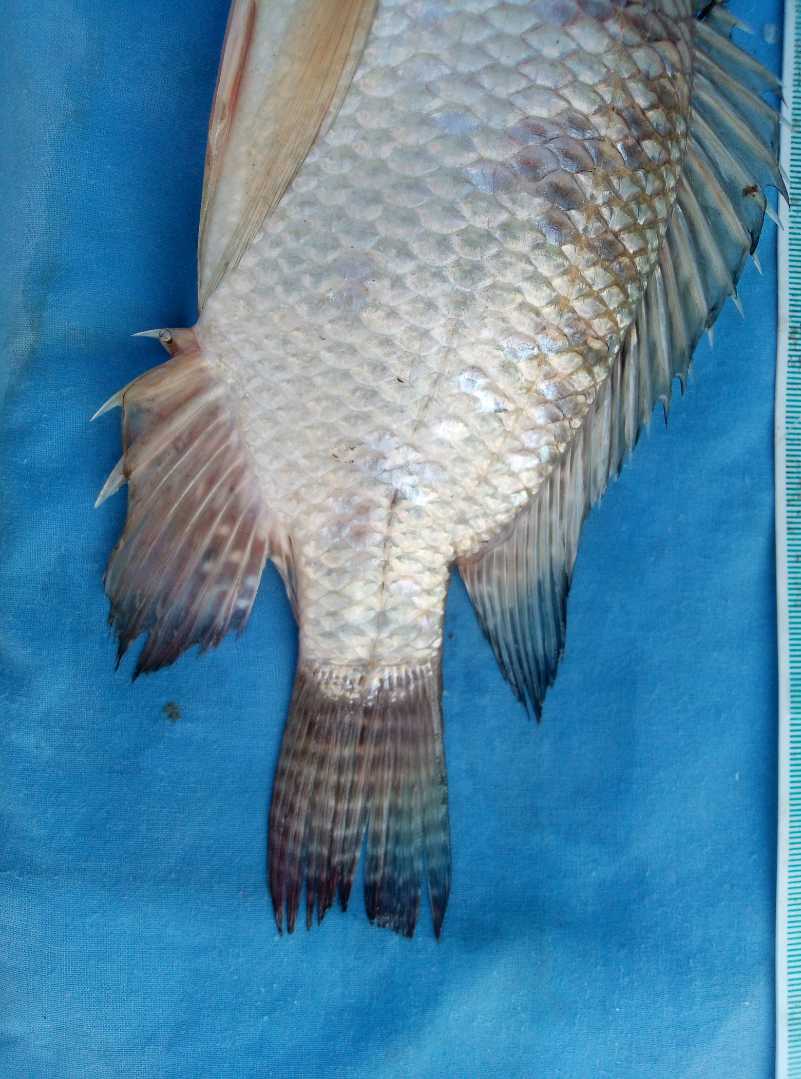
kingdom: Animalia
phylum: Chordata
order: Perciformes
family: Cichlidae
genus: Oreochromis
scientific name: Oreochromis niloticus
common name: Nile tilapia
